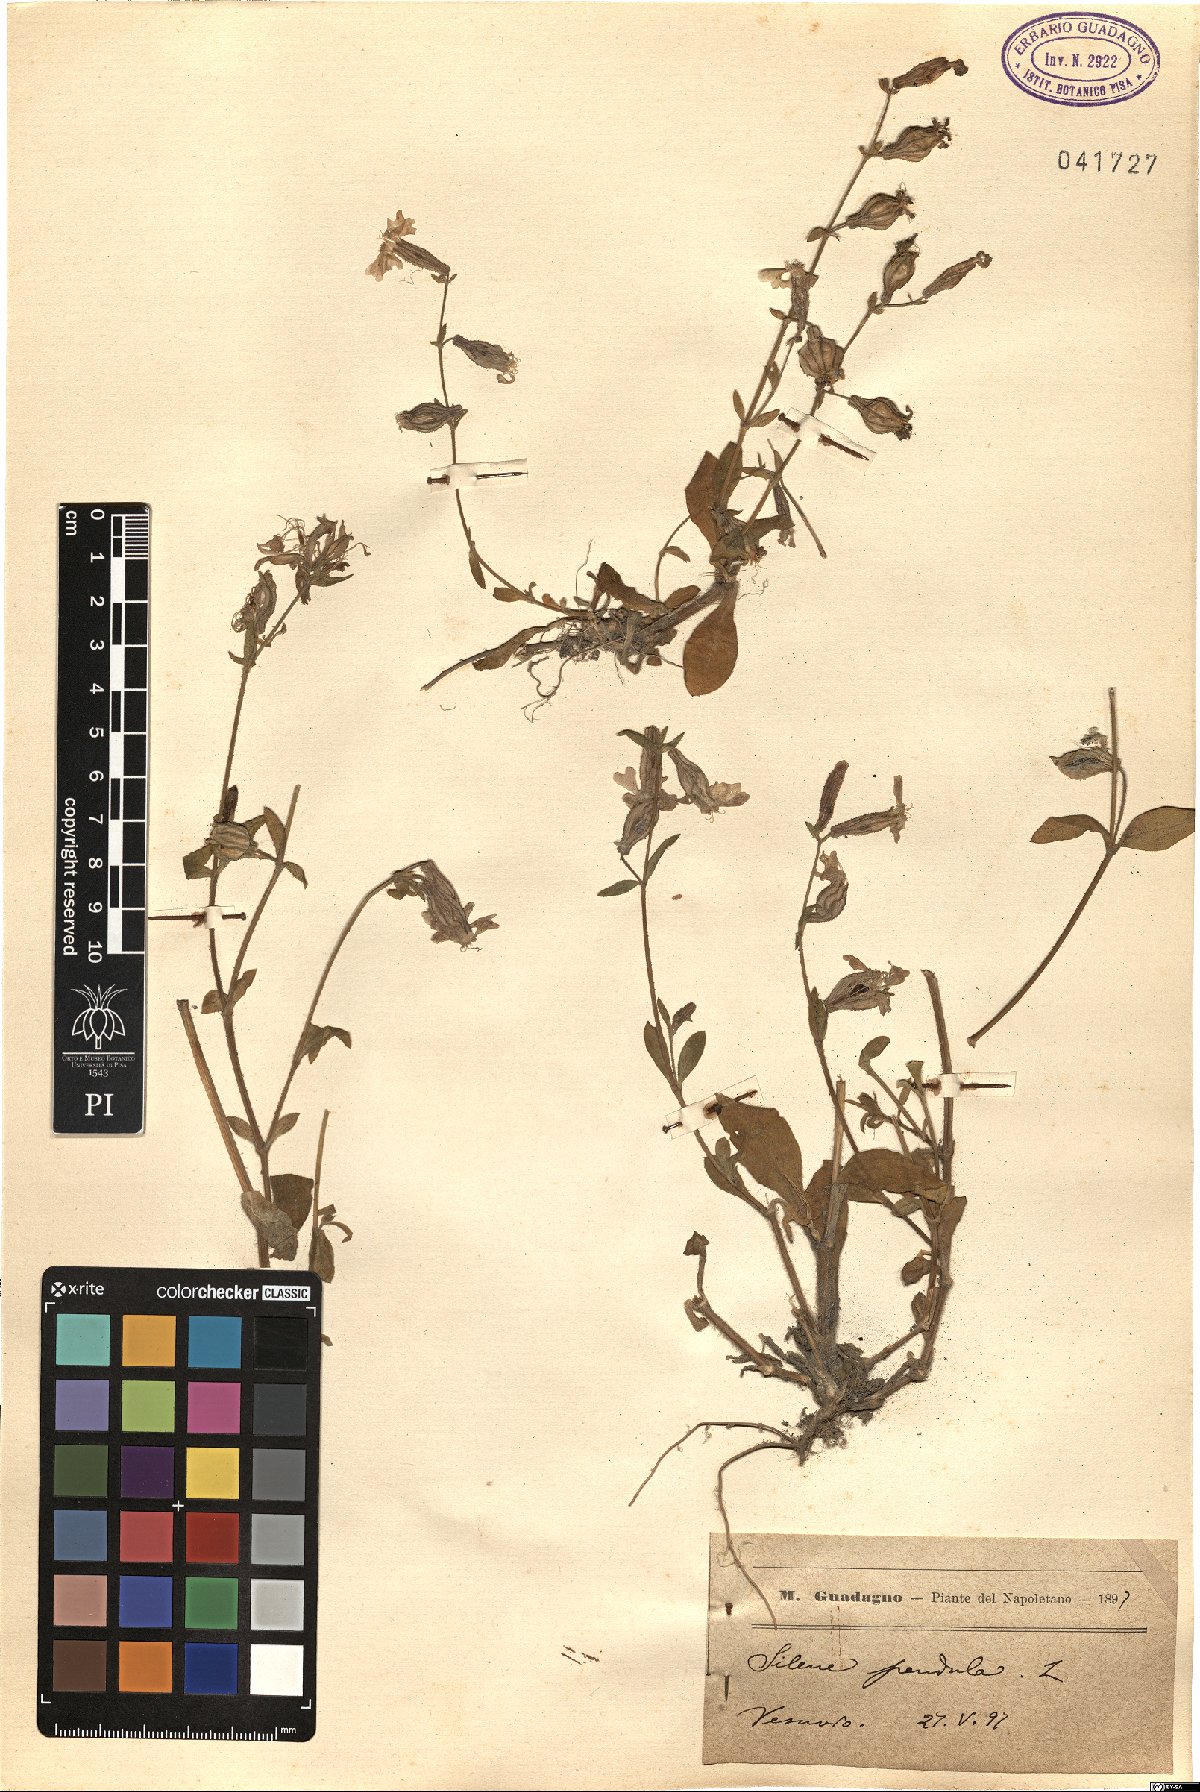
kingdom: Plantae
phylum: Tracheophyta
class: Magnoliopsida
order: Caryophyllales
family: Caryophyllaceae
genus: Silene
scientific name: Silene pendula
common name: Nodding catchfly
